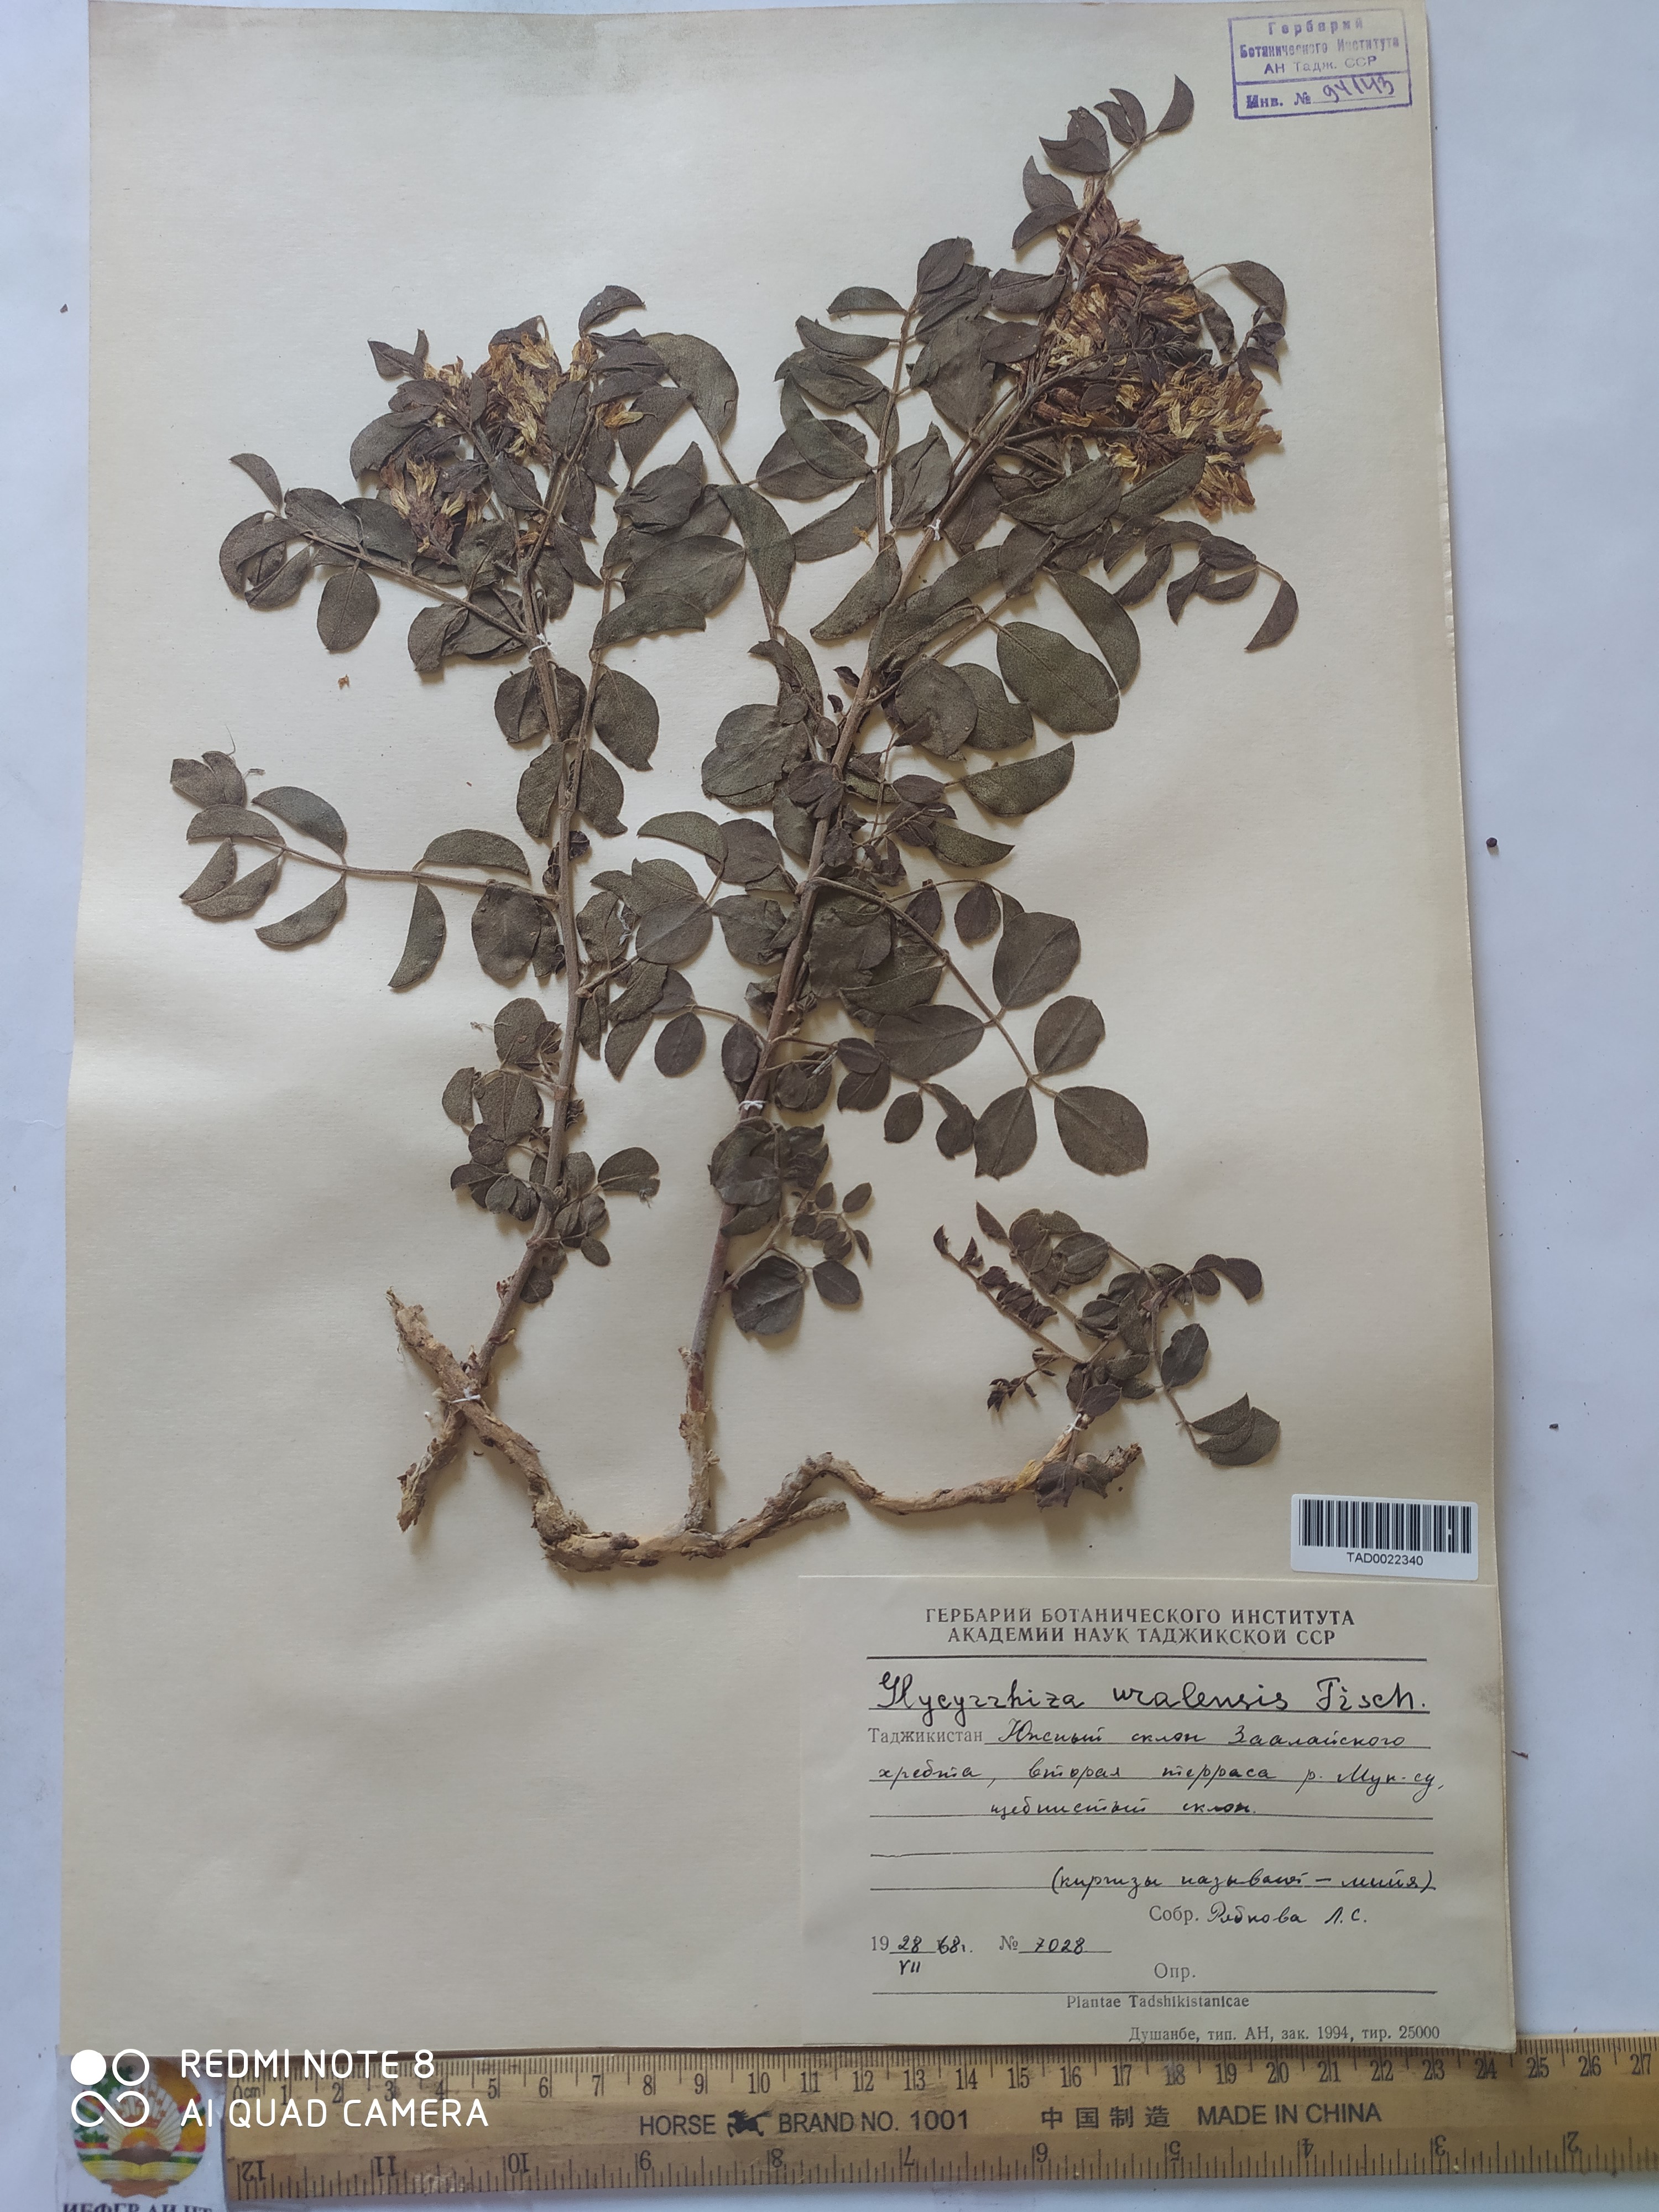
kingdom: Plantae
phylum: Tracheophyta
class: Magnoliopsida
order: Fabales
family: Fabaceae
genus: Glycyrrhiza
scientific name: Glycyrrhiza uralensis
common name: Chinese licorice
